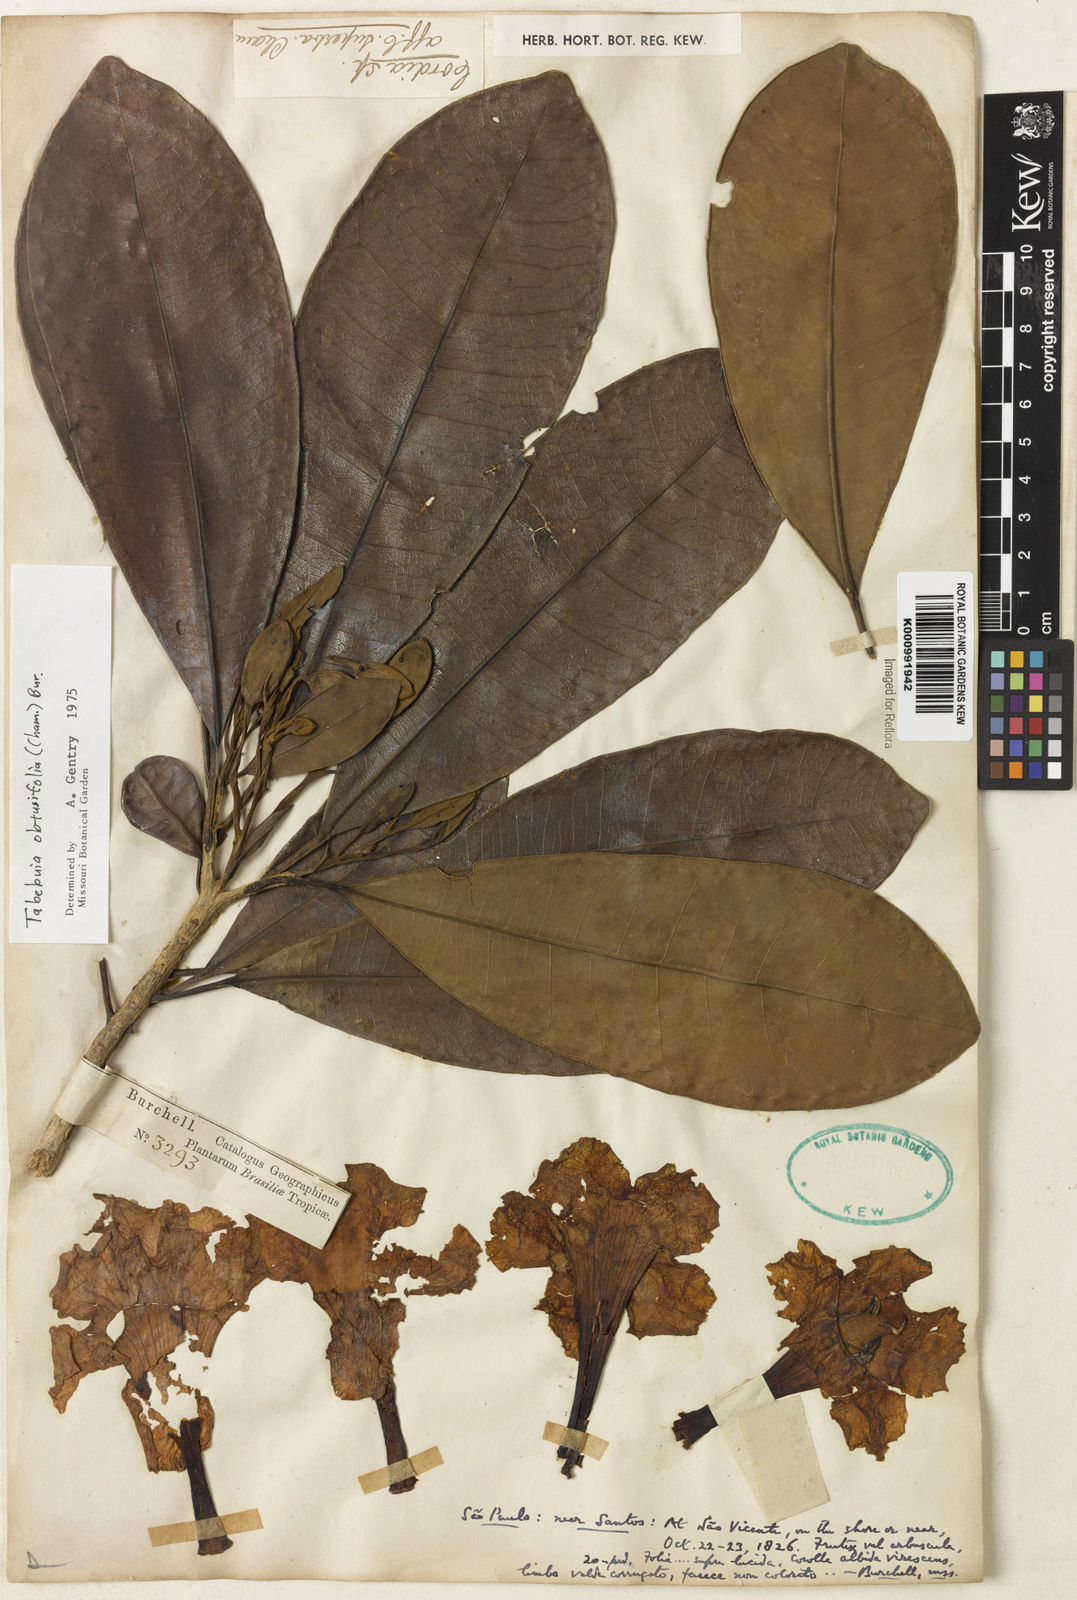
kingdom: Plantae
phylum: Tracheophyta
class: Magnoliopsida
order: Lamiales
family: Bignoniaceae
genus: Tabebuia
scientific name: Tabebuia obtusifolia
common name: Guadeloupe trumpet-tree
